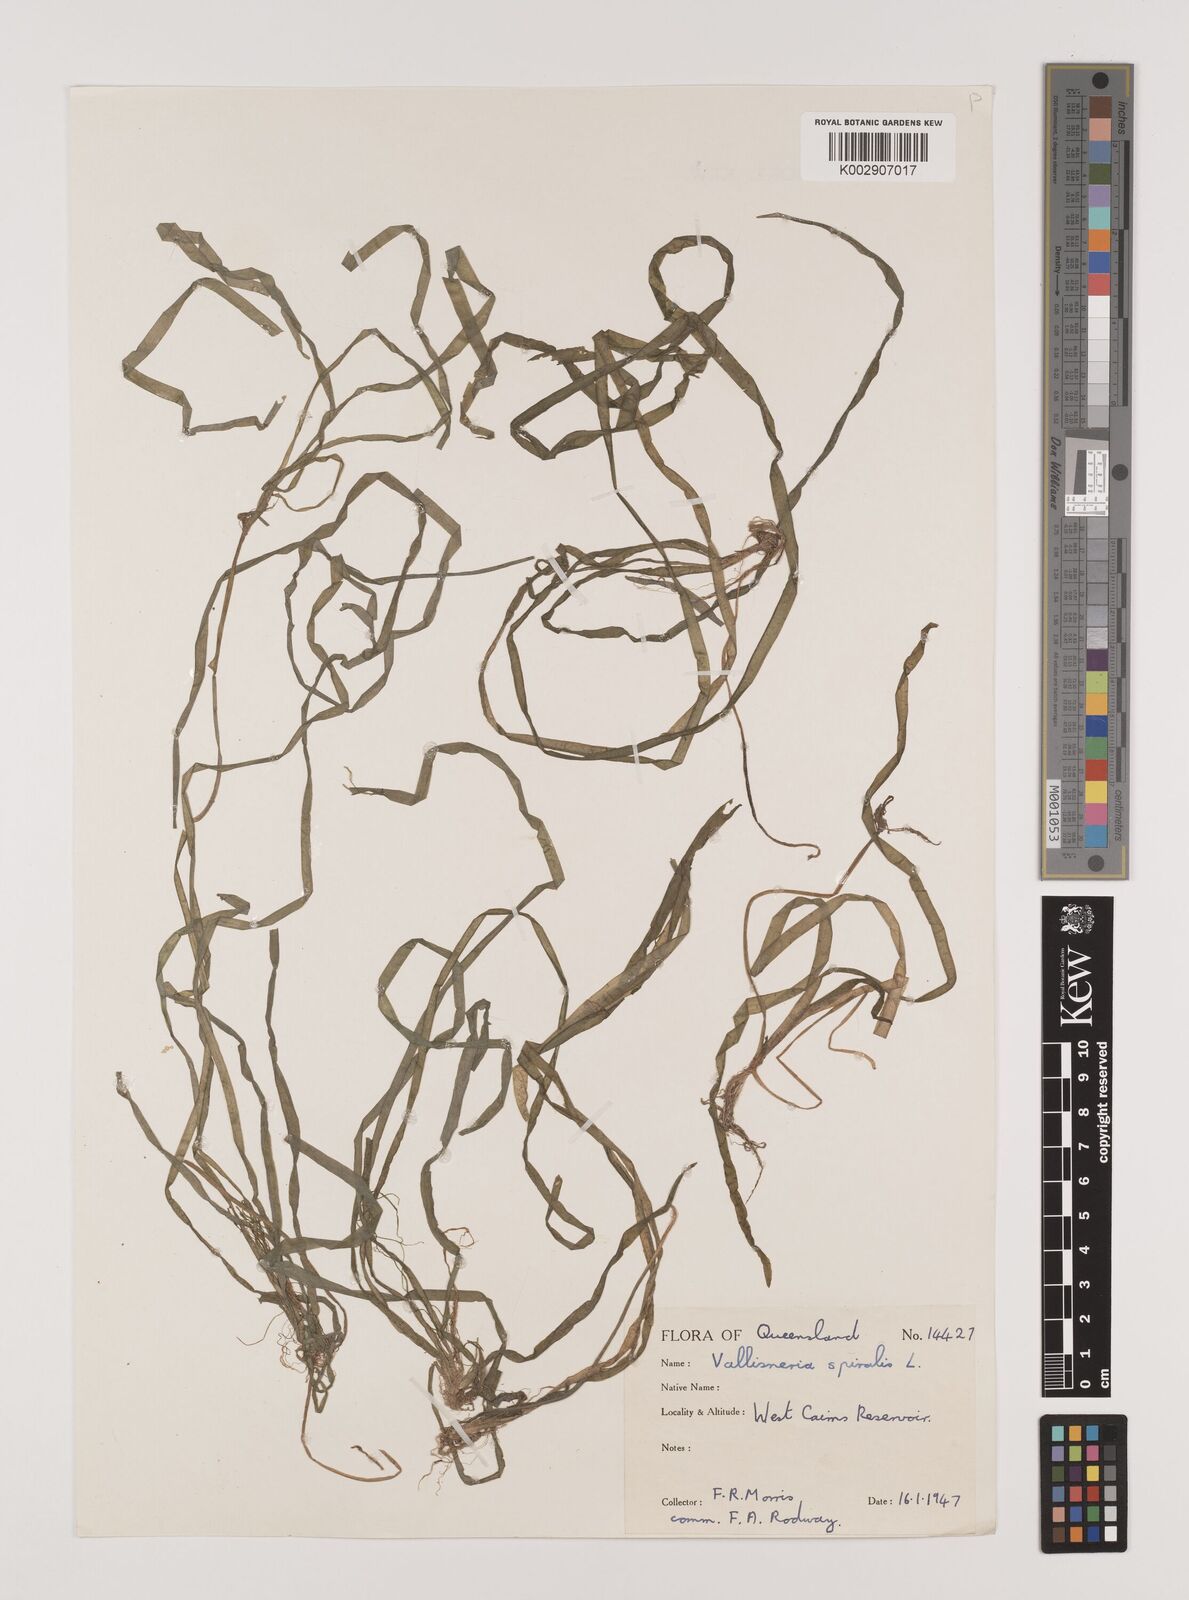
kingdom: Plantae
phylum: Tracheophyta
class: Liliopsida
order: Alismatales
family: Hydrocharitaceae
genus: Vallisneria
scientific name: Vallisneria spiralis
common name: Tapegrass
